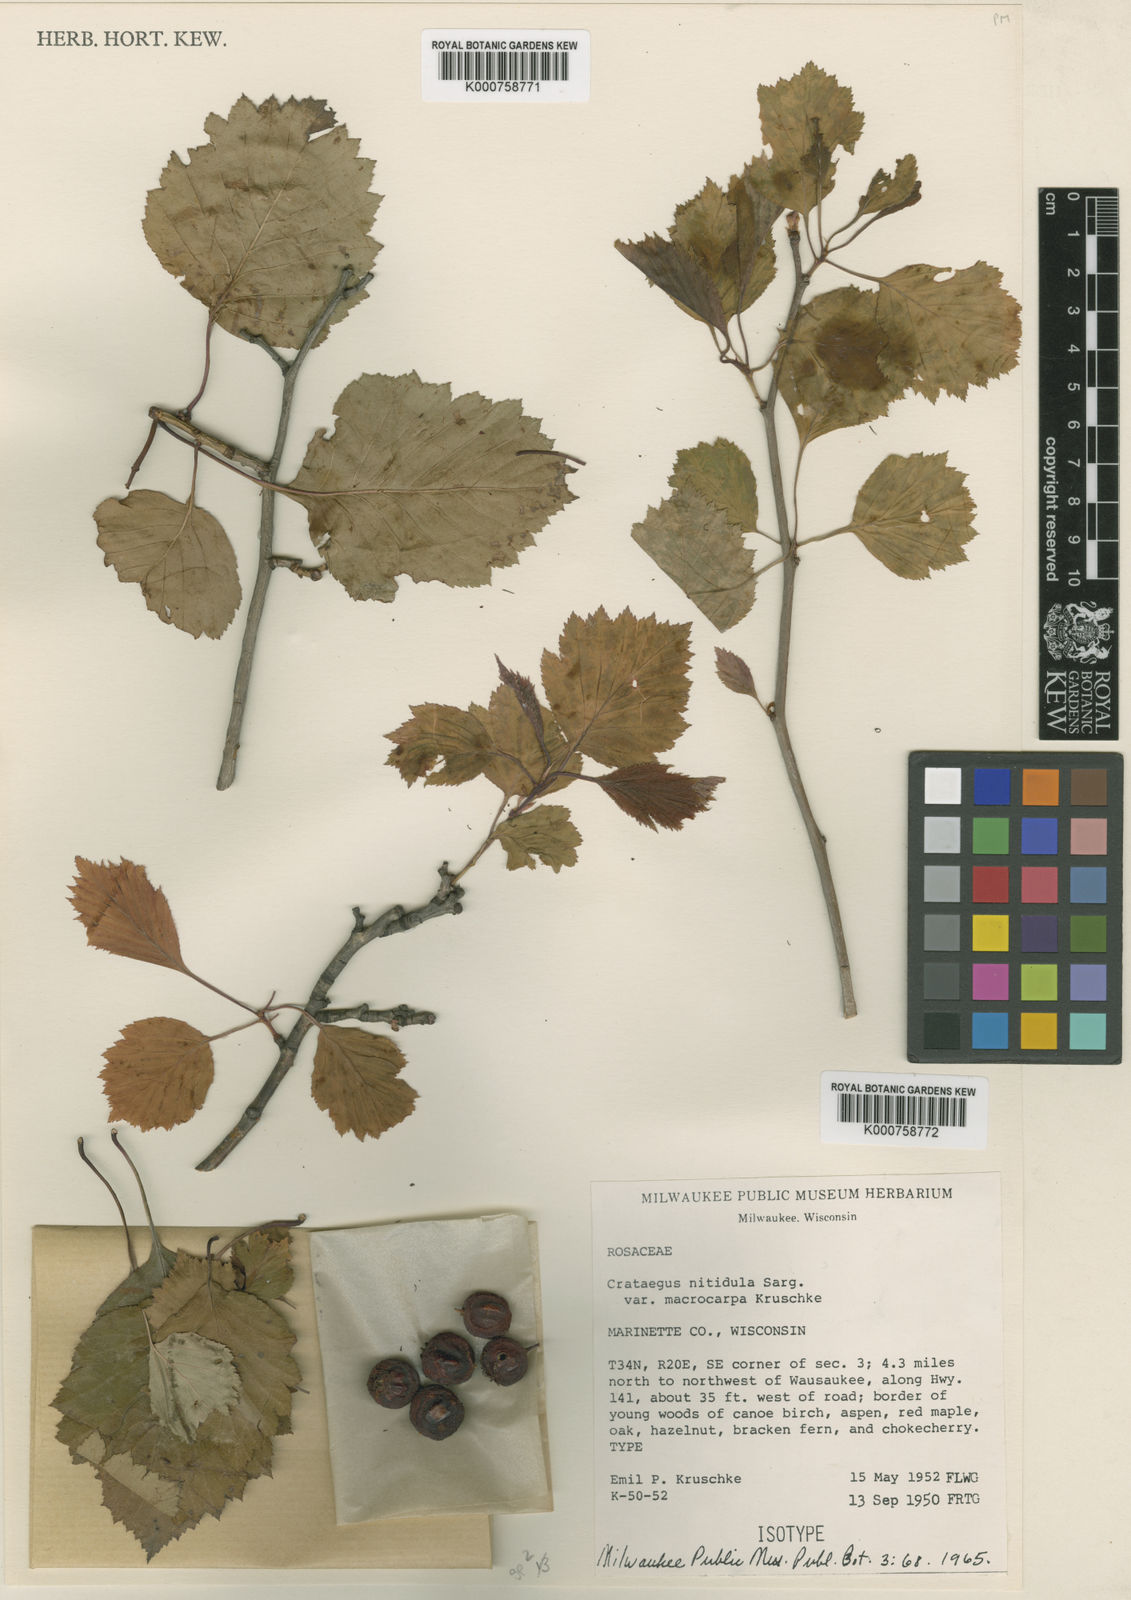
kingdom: Plantae
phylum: Tracheophyta
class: Magnoliopsida
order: Rosales
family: Rosaceae
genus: Crataegus
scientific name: Crataegus nitidula
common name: Ontario hawthorn
